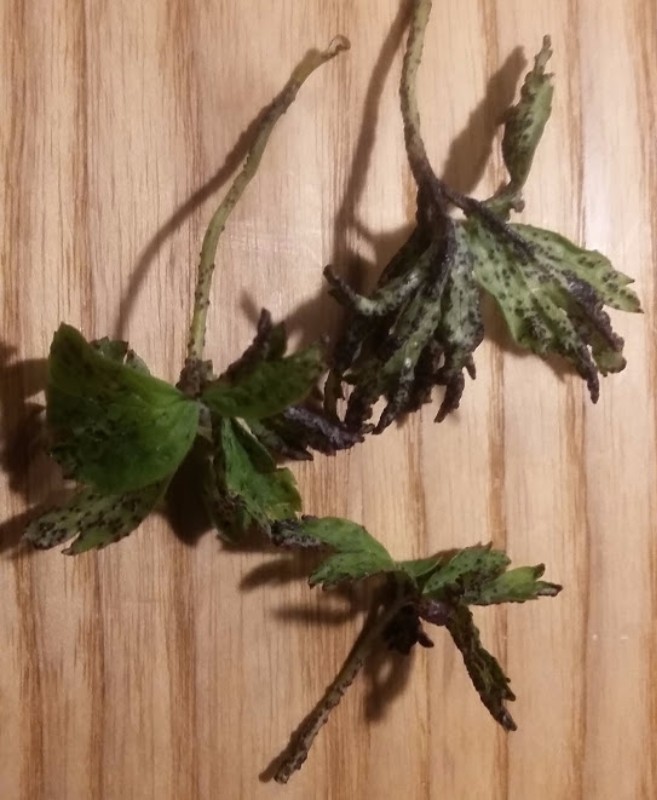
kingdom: Fungi
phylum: Basidiomycota
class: Ustilaginomycetes
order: Urocystidales
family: Urocystidaceae
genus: Urocystis
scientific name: Urocystis anemones
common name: anemone-brand
